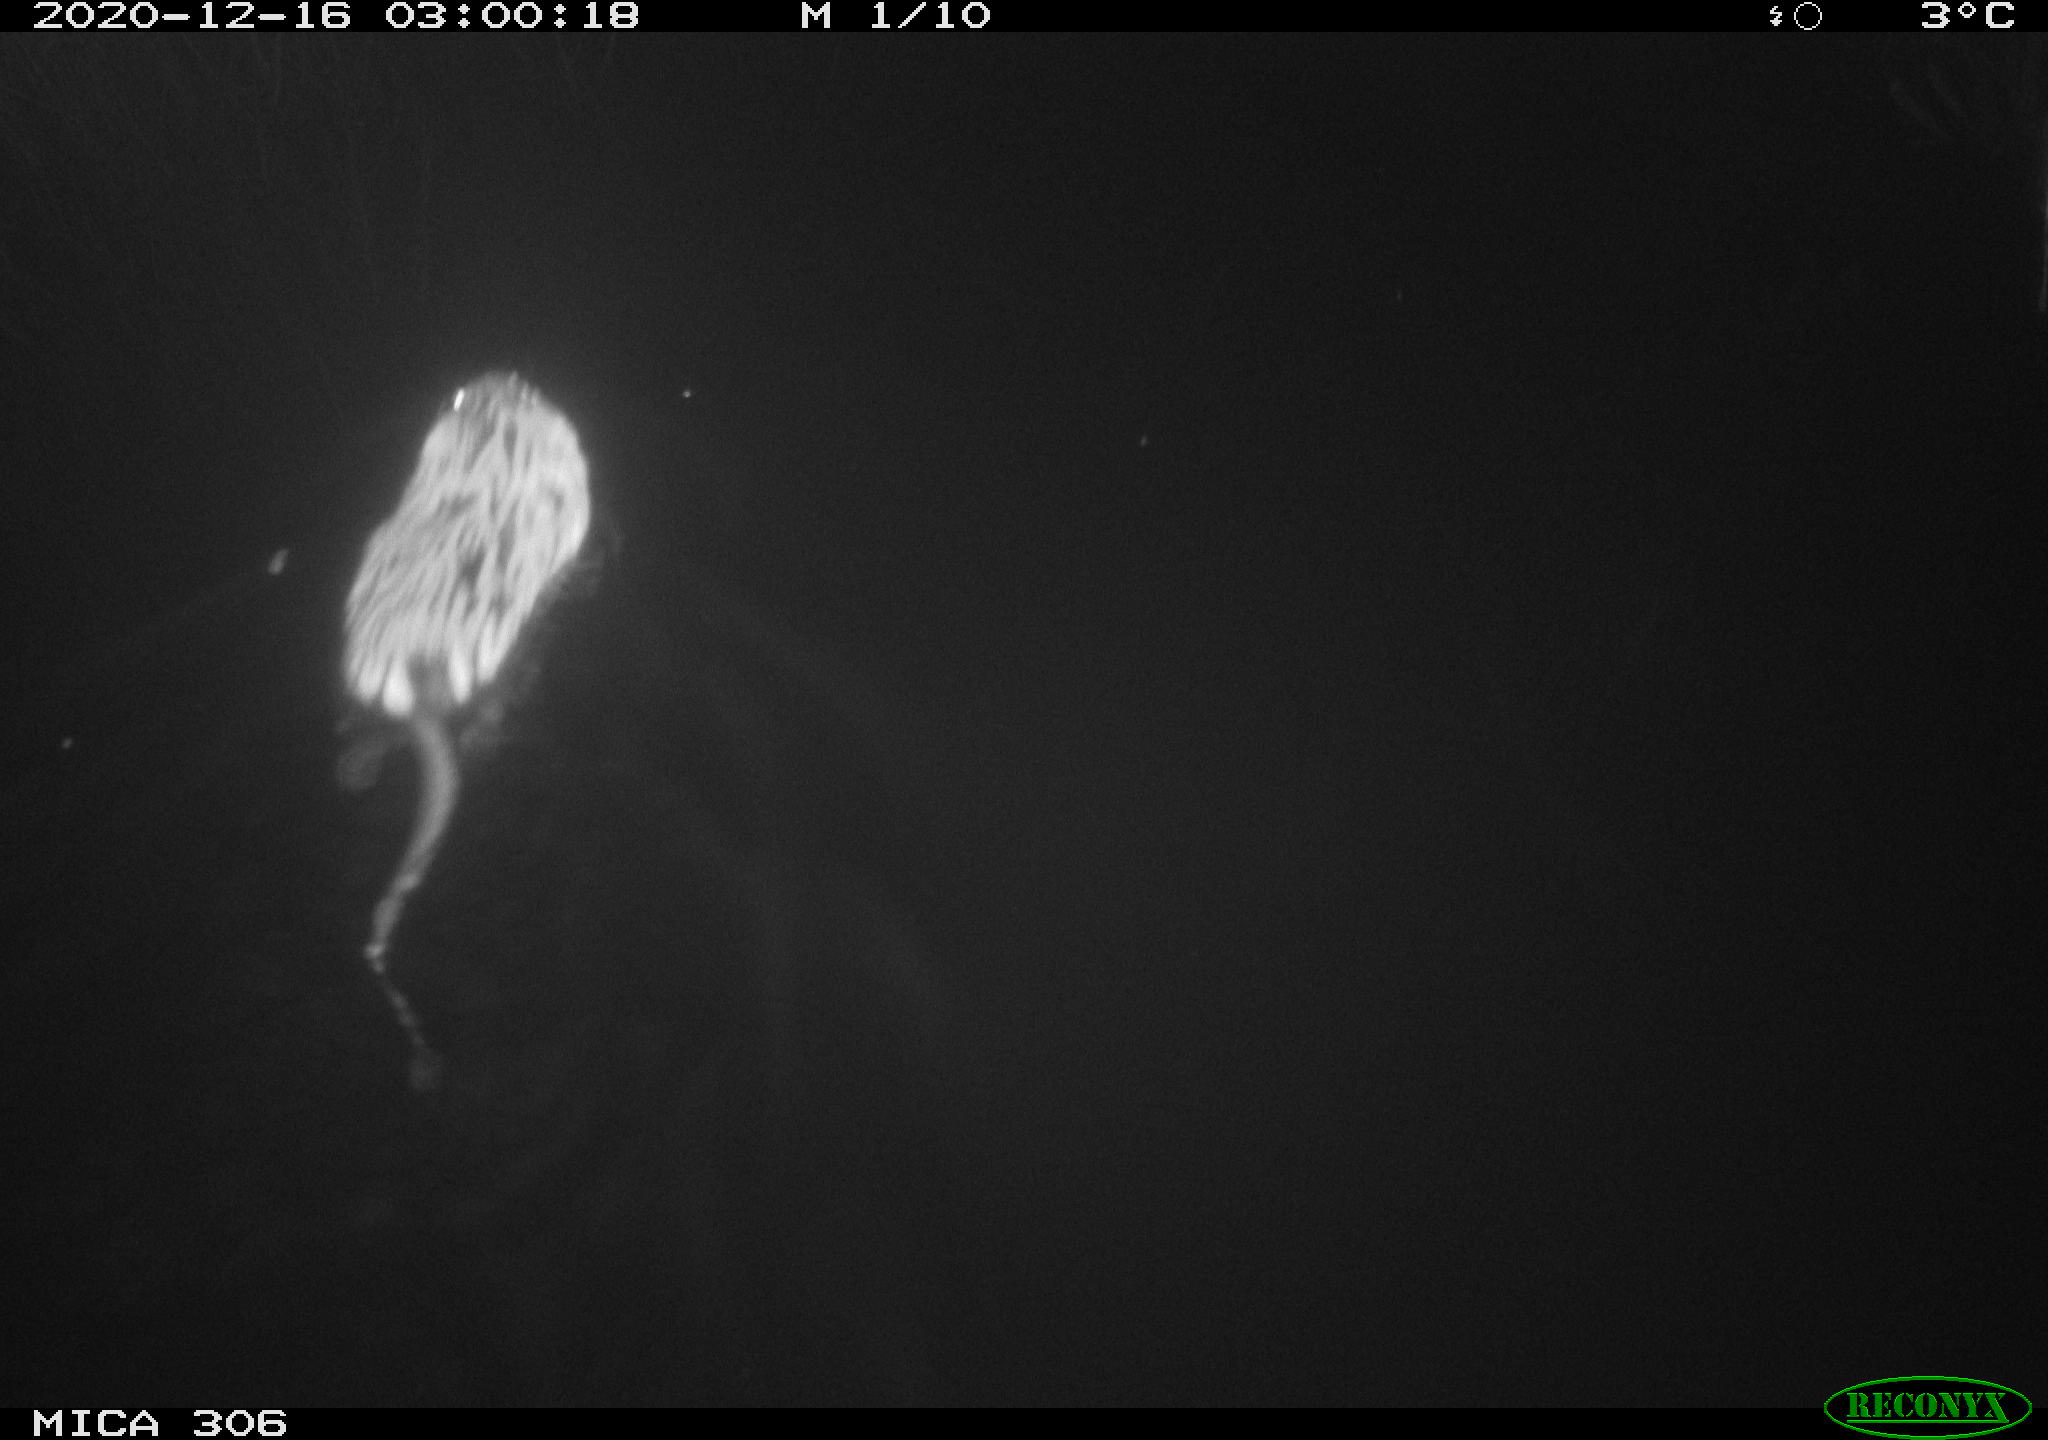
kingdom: Animalia
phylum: Chordata
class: Mammalia
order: Rodentia
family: Cricetidae
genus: Ondatra
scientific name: Ondatra zibethicus
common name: Muskrat
